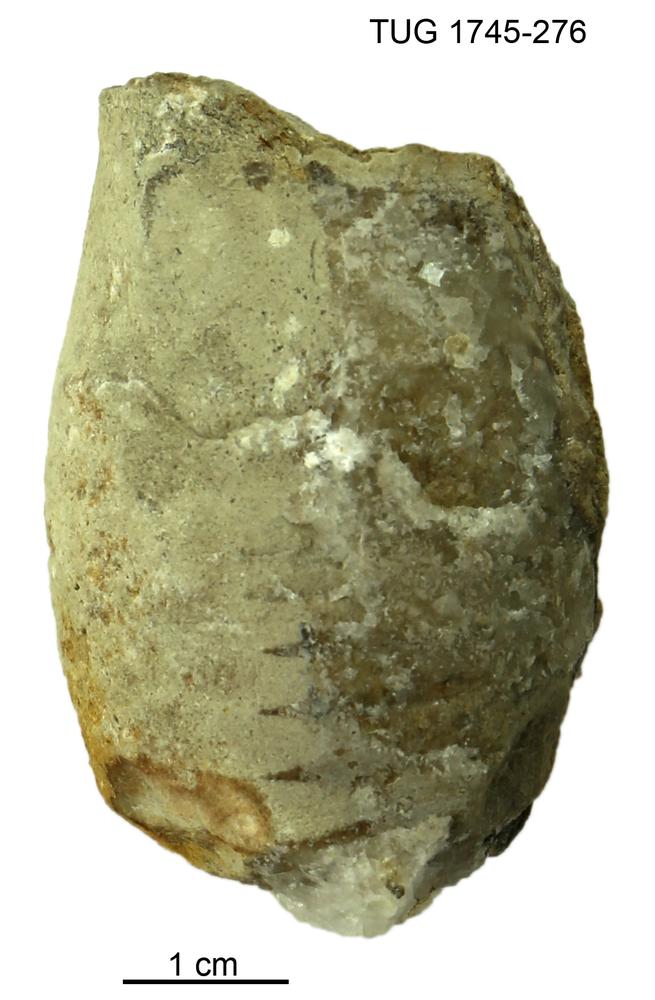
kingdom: Animalia
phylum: Mollusca
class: Cephalopoda
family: Tarphyceratidae
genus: Danoceras
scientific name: Danoceras
